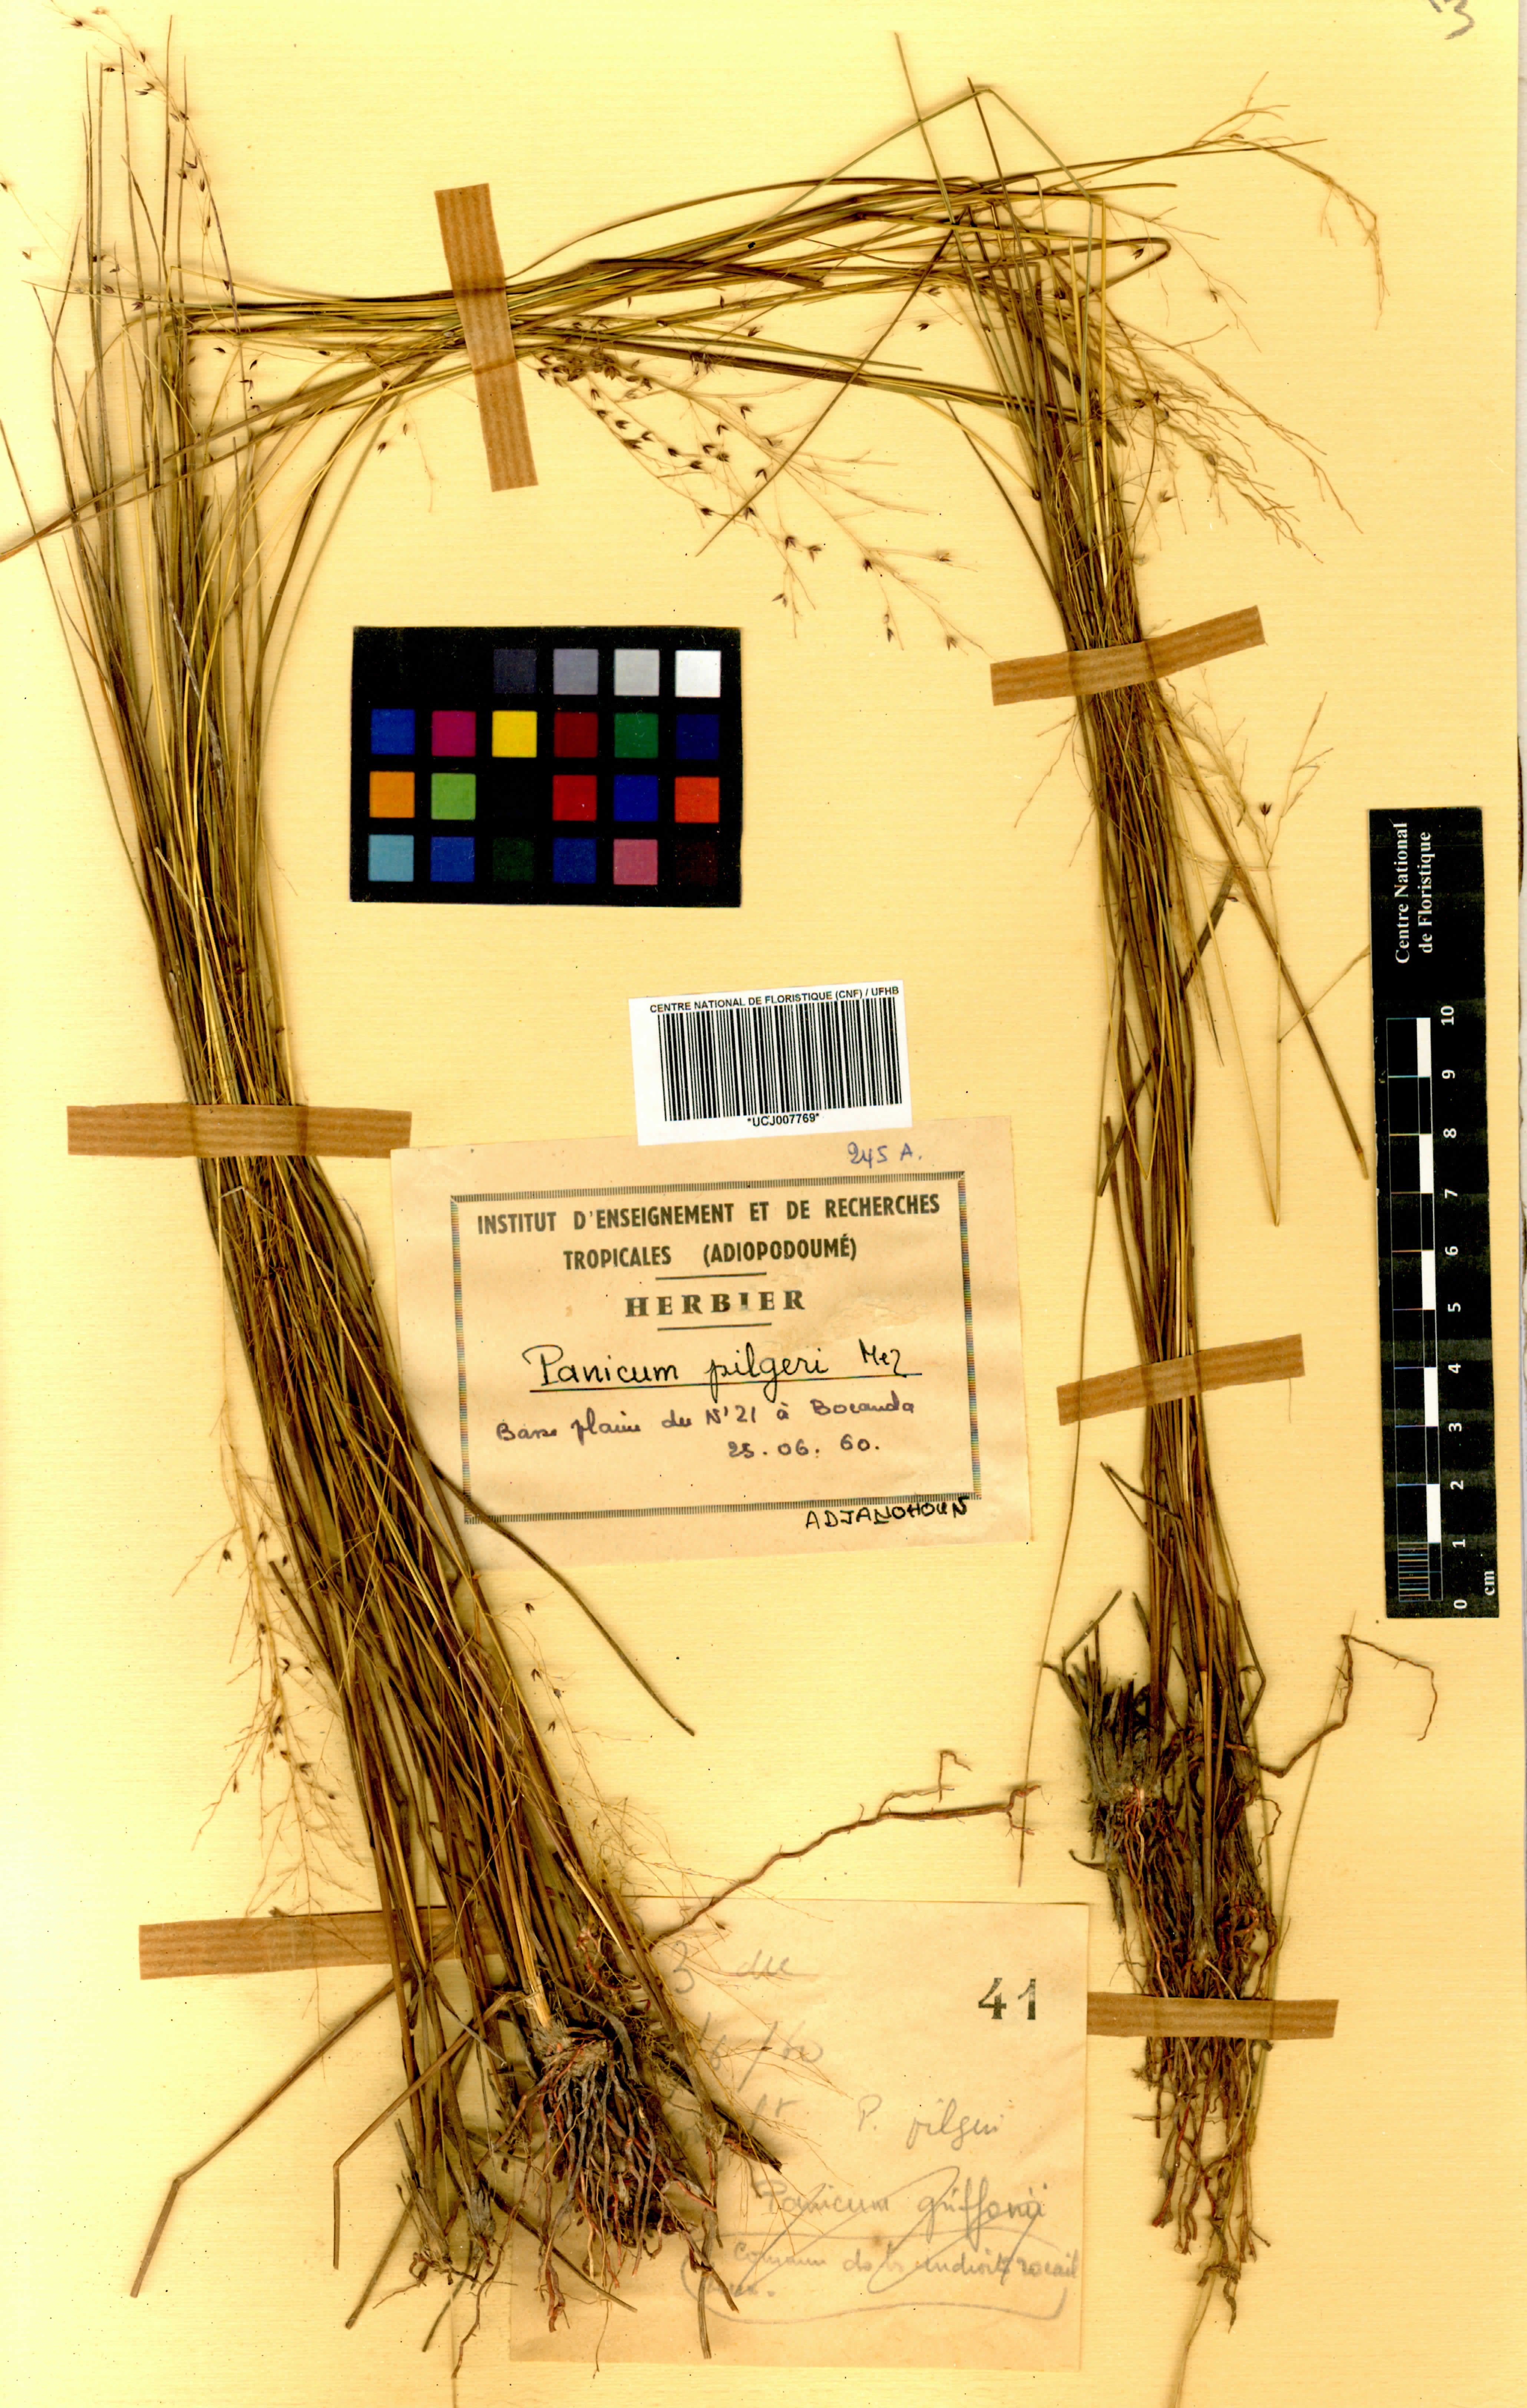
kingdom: Plantae
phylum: Tracheophyta
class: Liliopsida
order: Poales
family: Poaceae
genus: Panicum
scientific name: Panicum pilgeri
